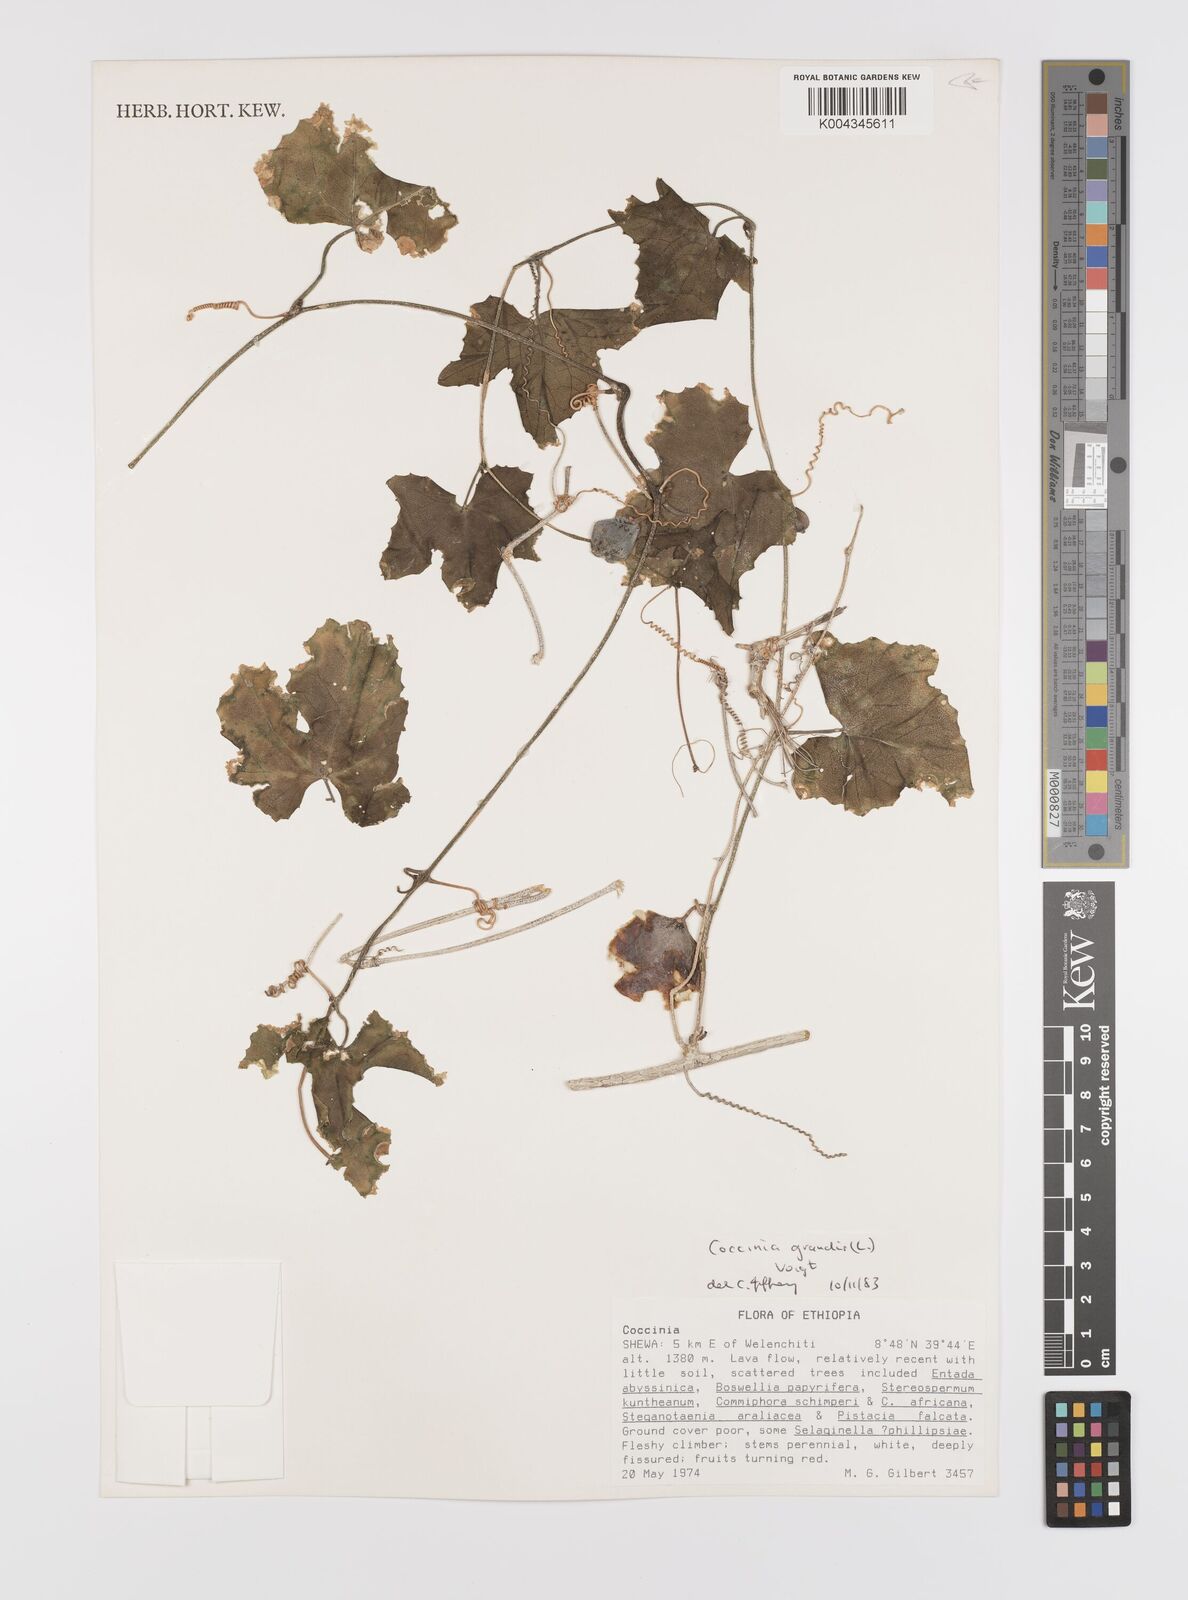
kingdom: Plantae
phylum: Tracheophyta
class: Magnoliopsida
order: Cucurbitales
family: Cucurbitaceae
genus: Coccinia
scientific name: Coccinia grandis
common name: Ivy gourd
